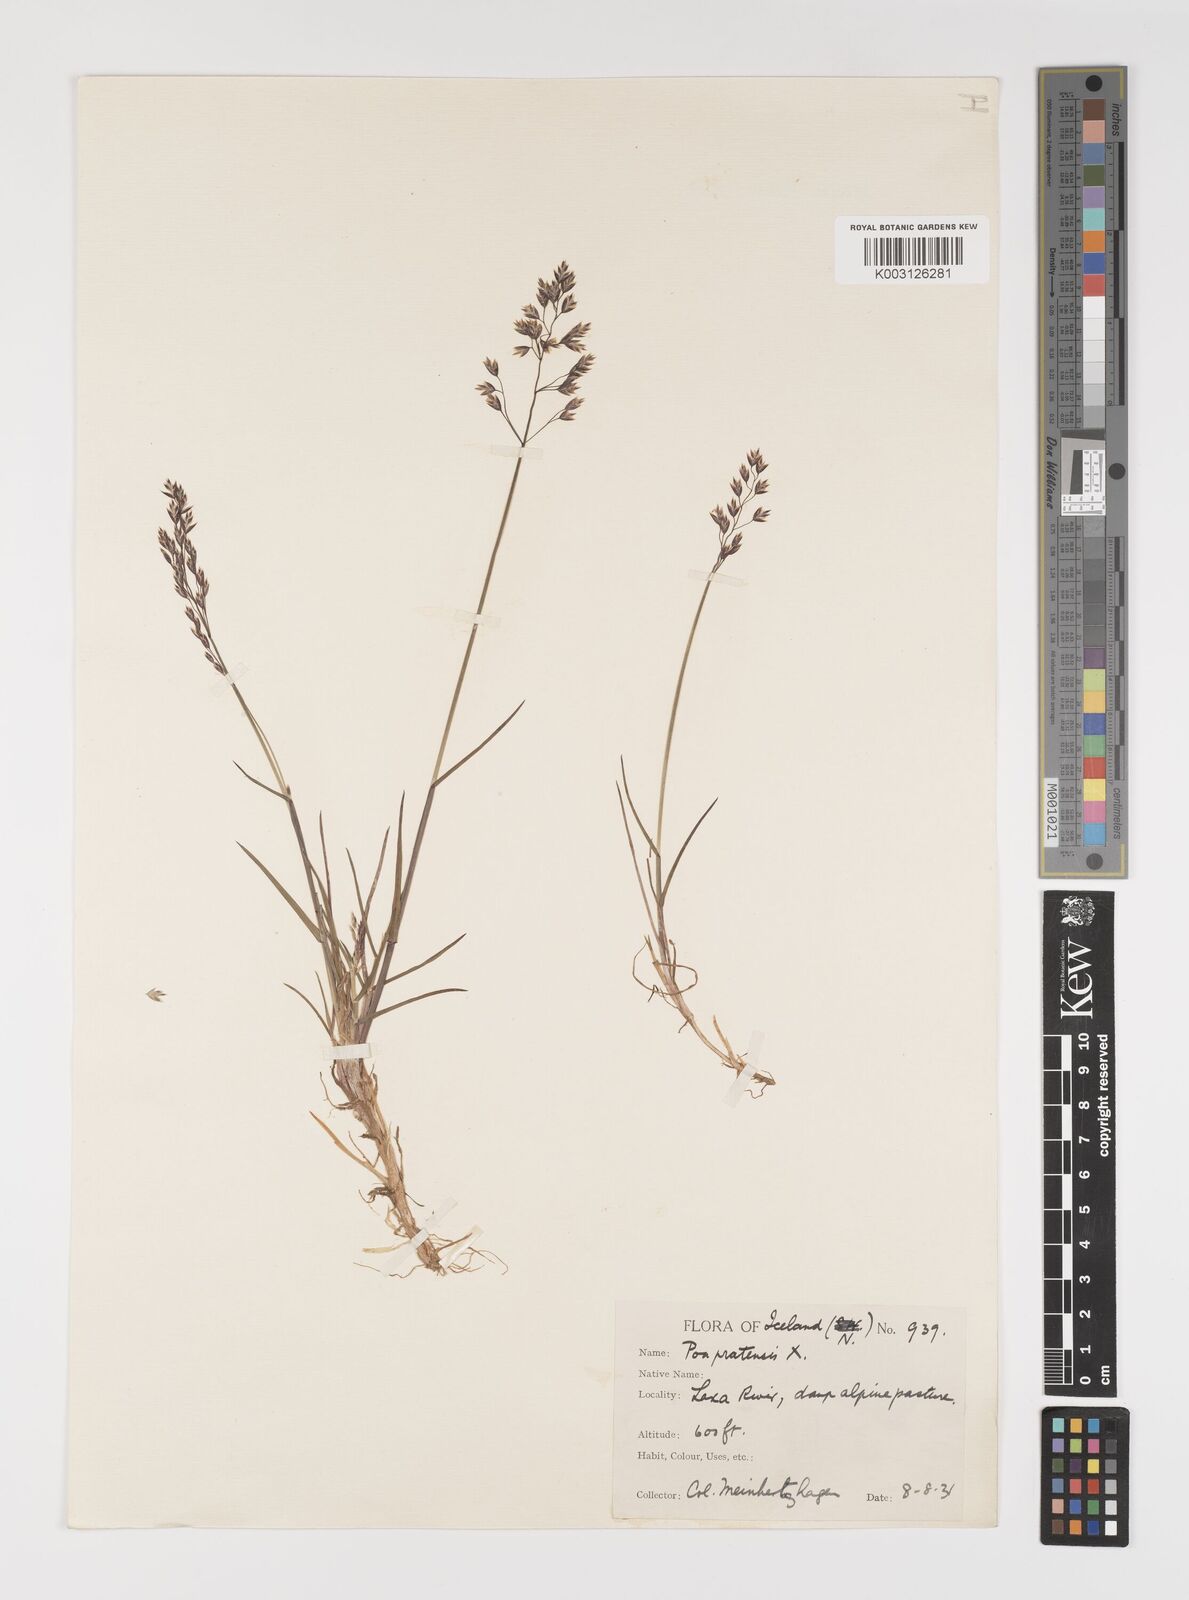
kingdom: Plantae
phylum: Tracheophyta
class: Liliopsida
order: Poales
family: Poaceae
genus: Poa
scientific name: Poa glauca
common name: Glaucous bluegrass
